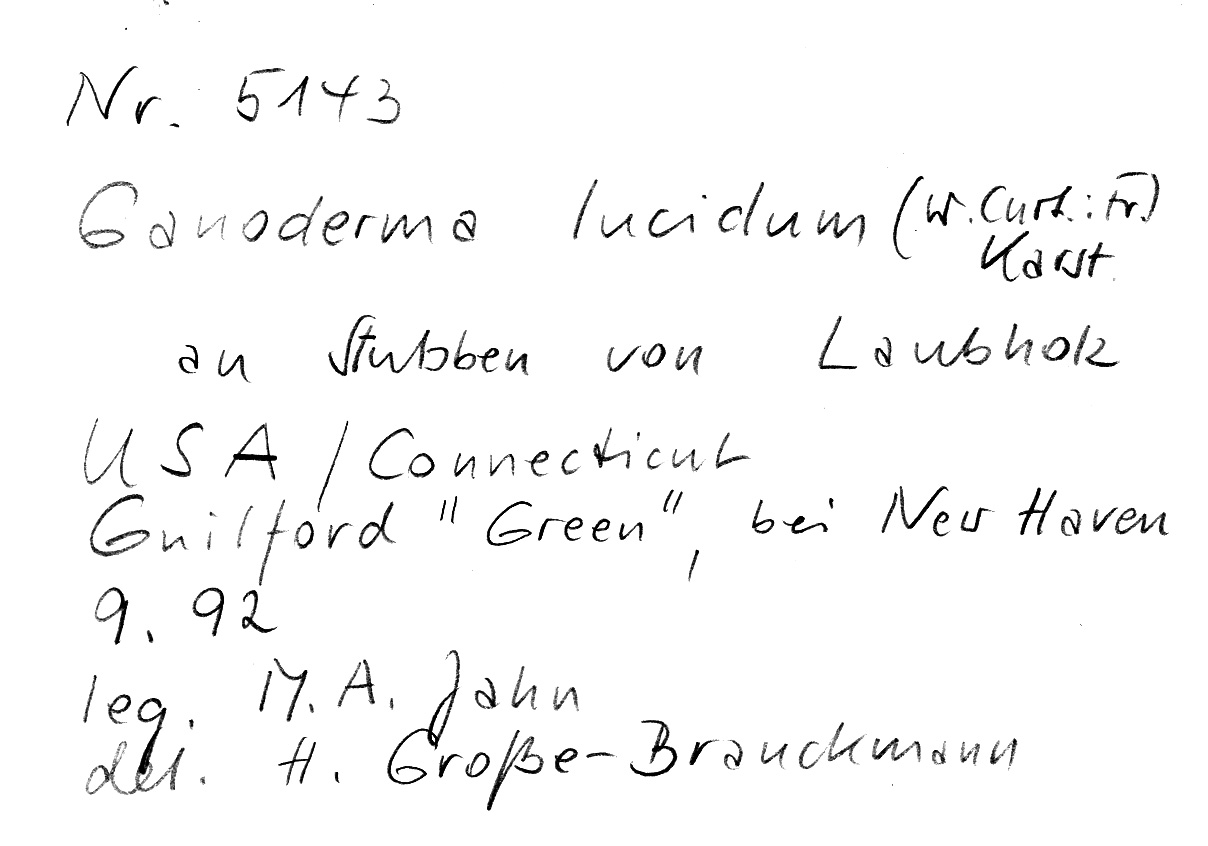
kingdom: Fungi
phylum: Basidiomycota
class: Agaricomycetes
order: Polyporales
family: Polyporaceae
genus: Ganoderma
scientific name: Ganoderma lucidum
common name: Lacquered bracket
